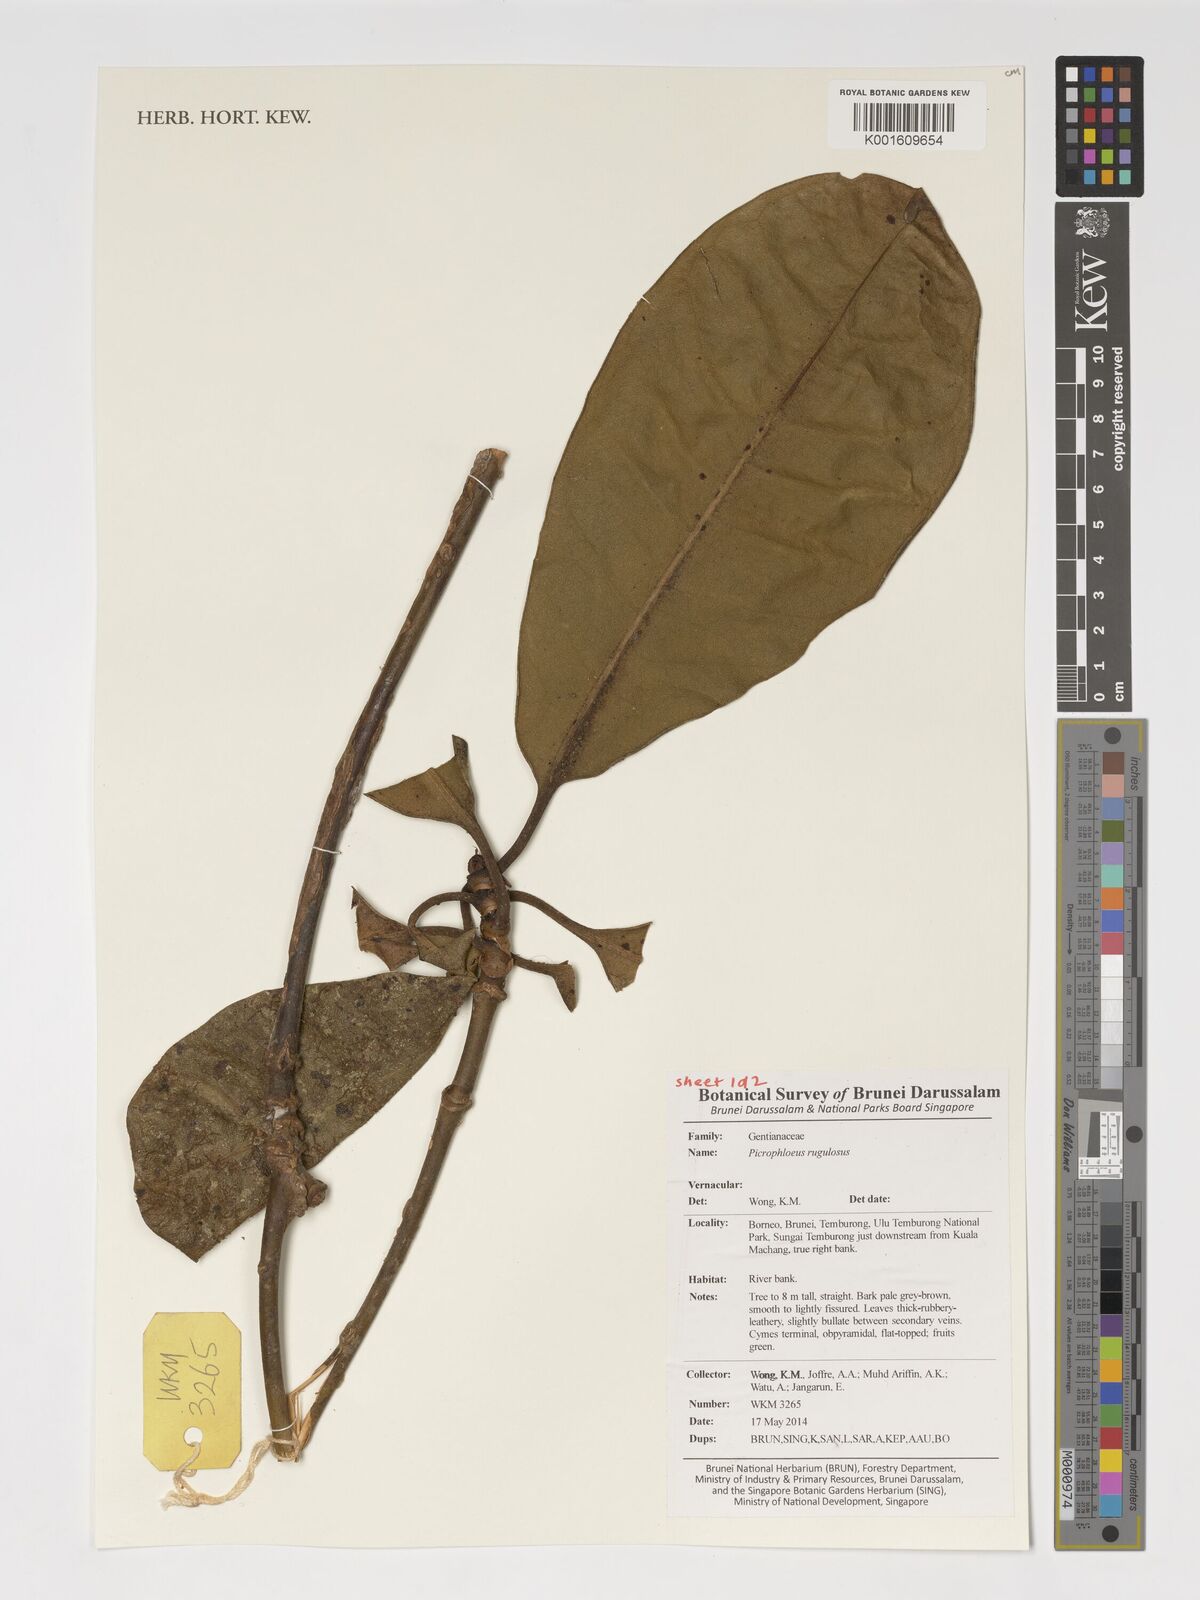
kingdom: Plantae
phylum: Tracheophyta
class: Magnoliopsida
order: Gentianales
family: Gentianaceae
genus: Picrophloeus
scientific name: Picrophloeus rugulosus
